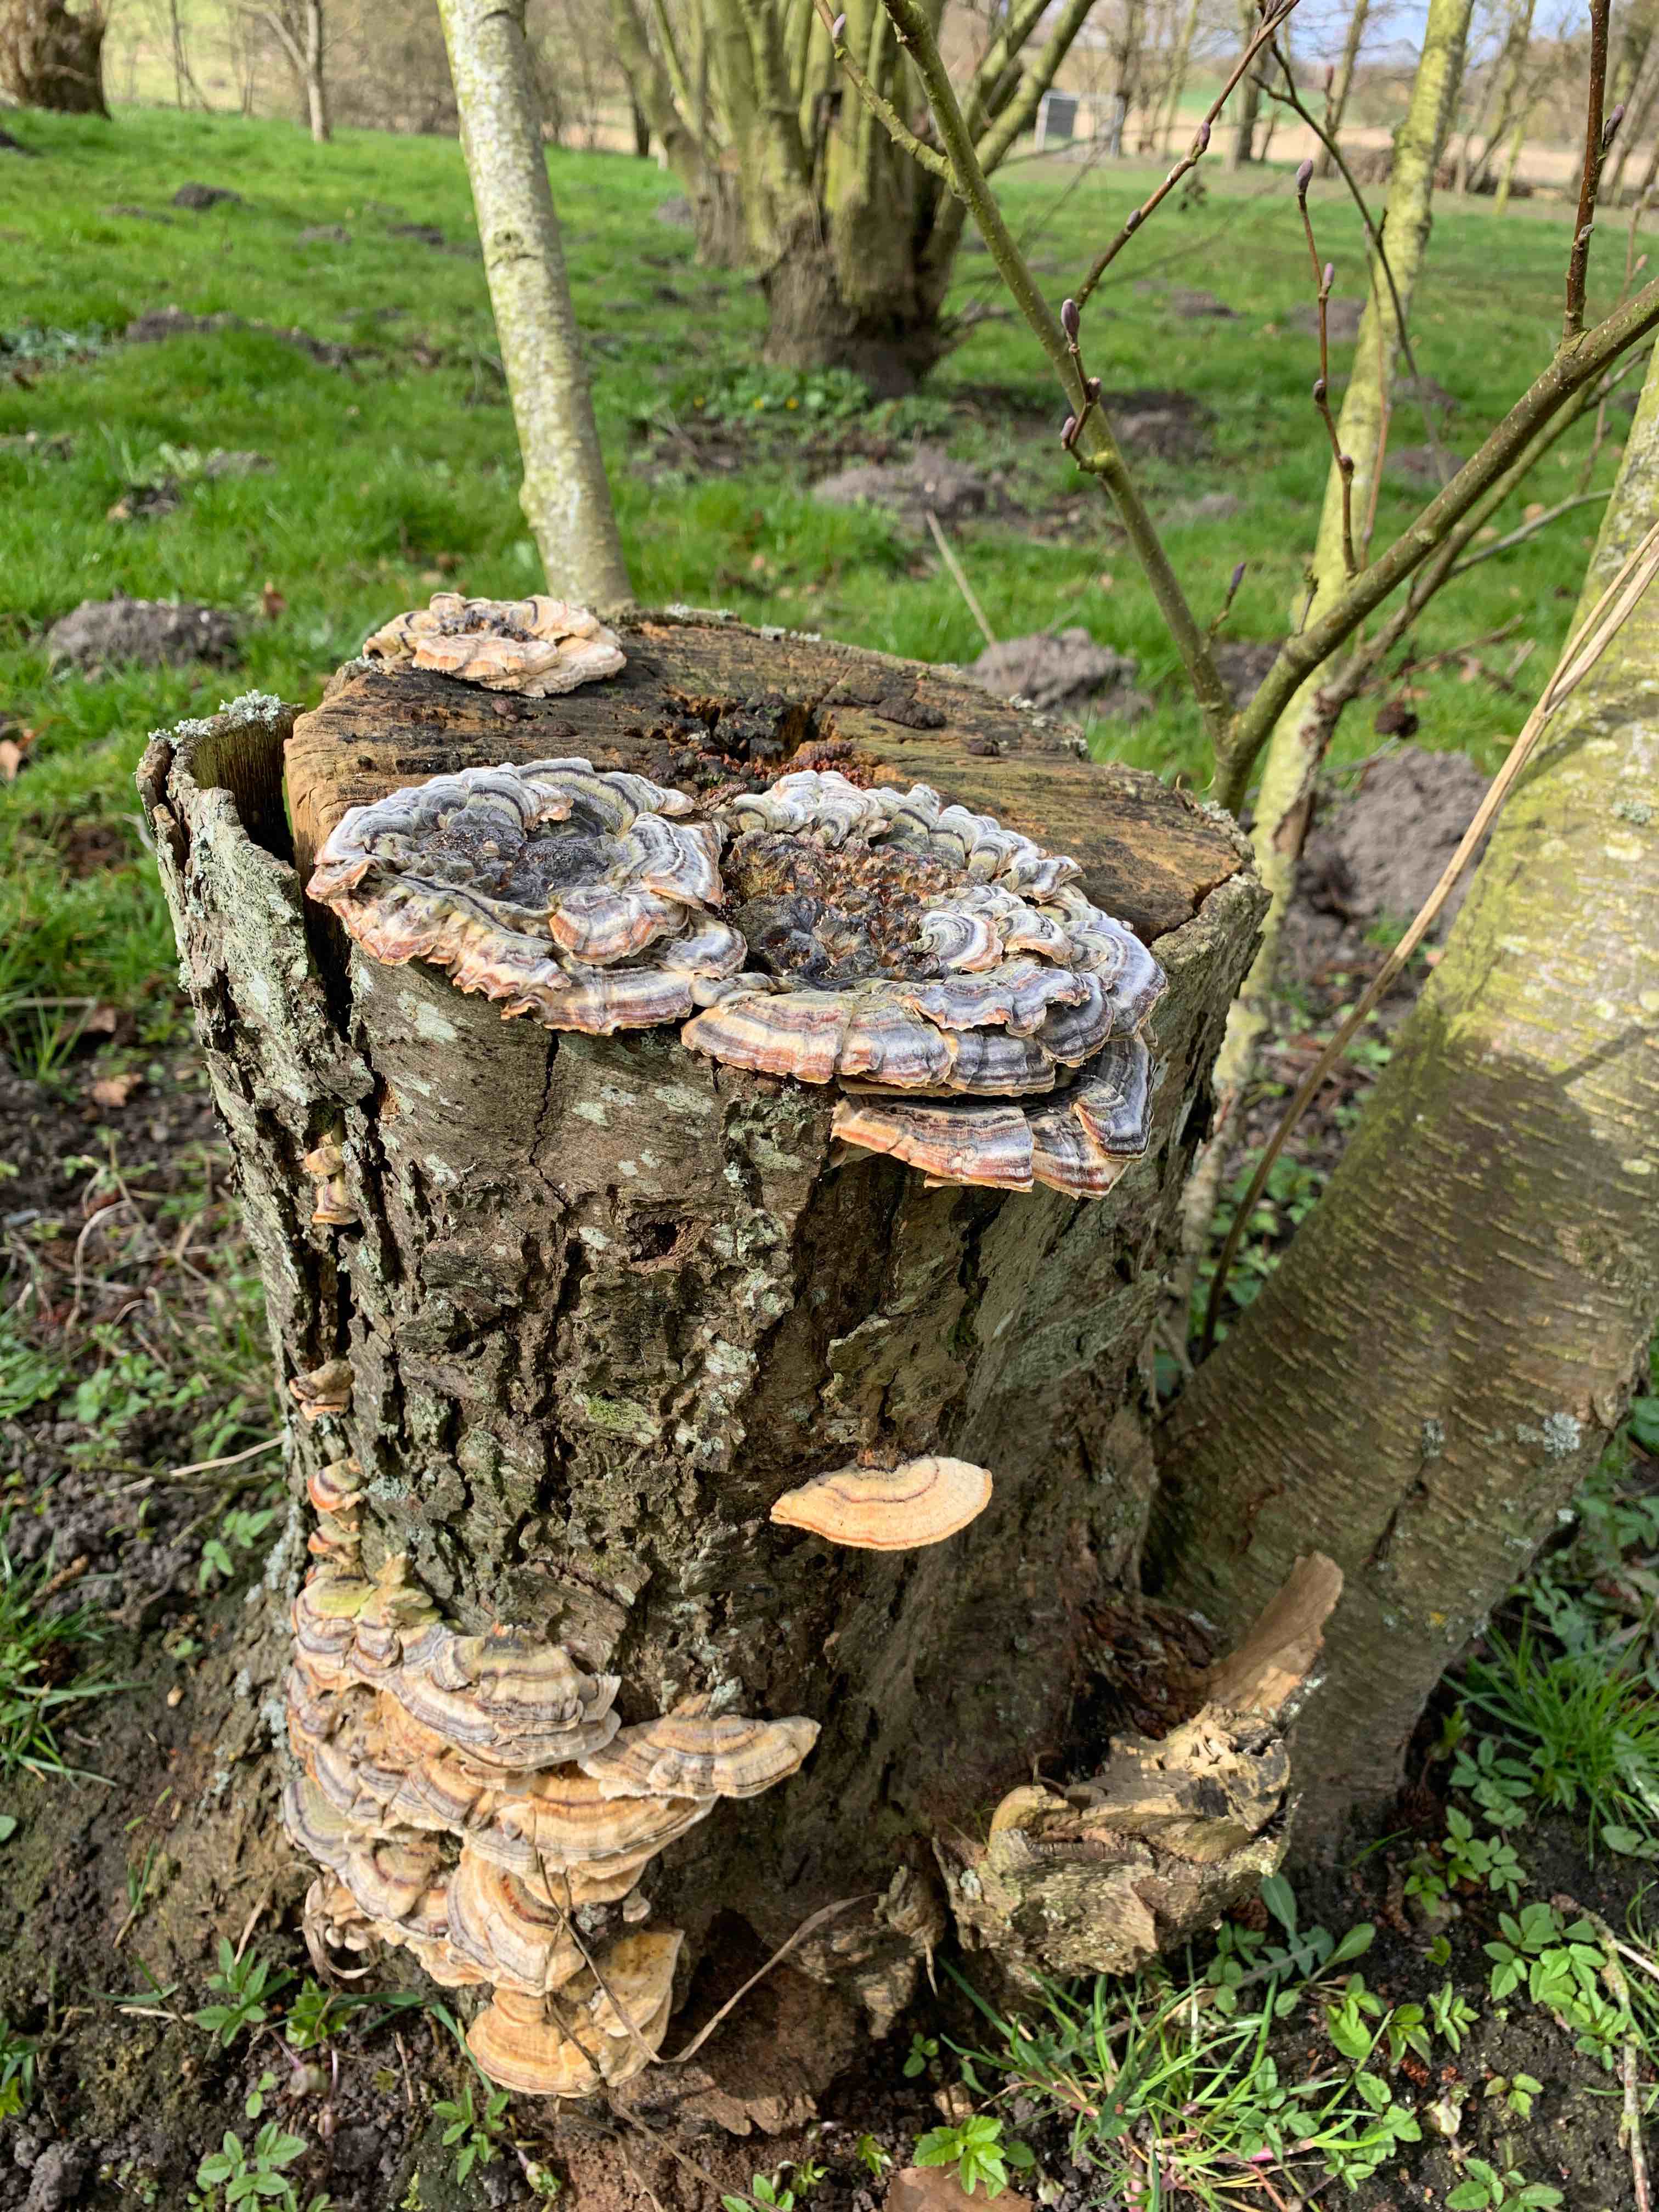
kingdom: Fungi
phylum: Basidiomycota
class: Agaricomycetes
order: Polyporales
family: Polyporaceae
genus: Trametes
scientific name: Trametes versicolor
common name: broget læderporesvamp
